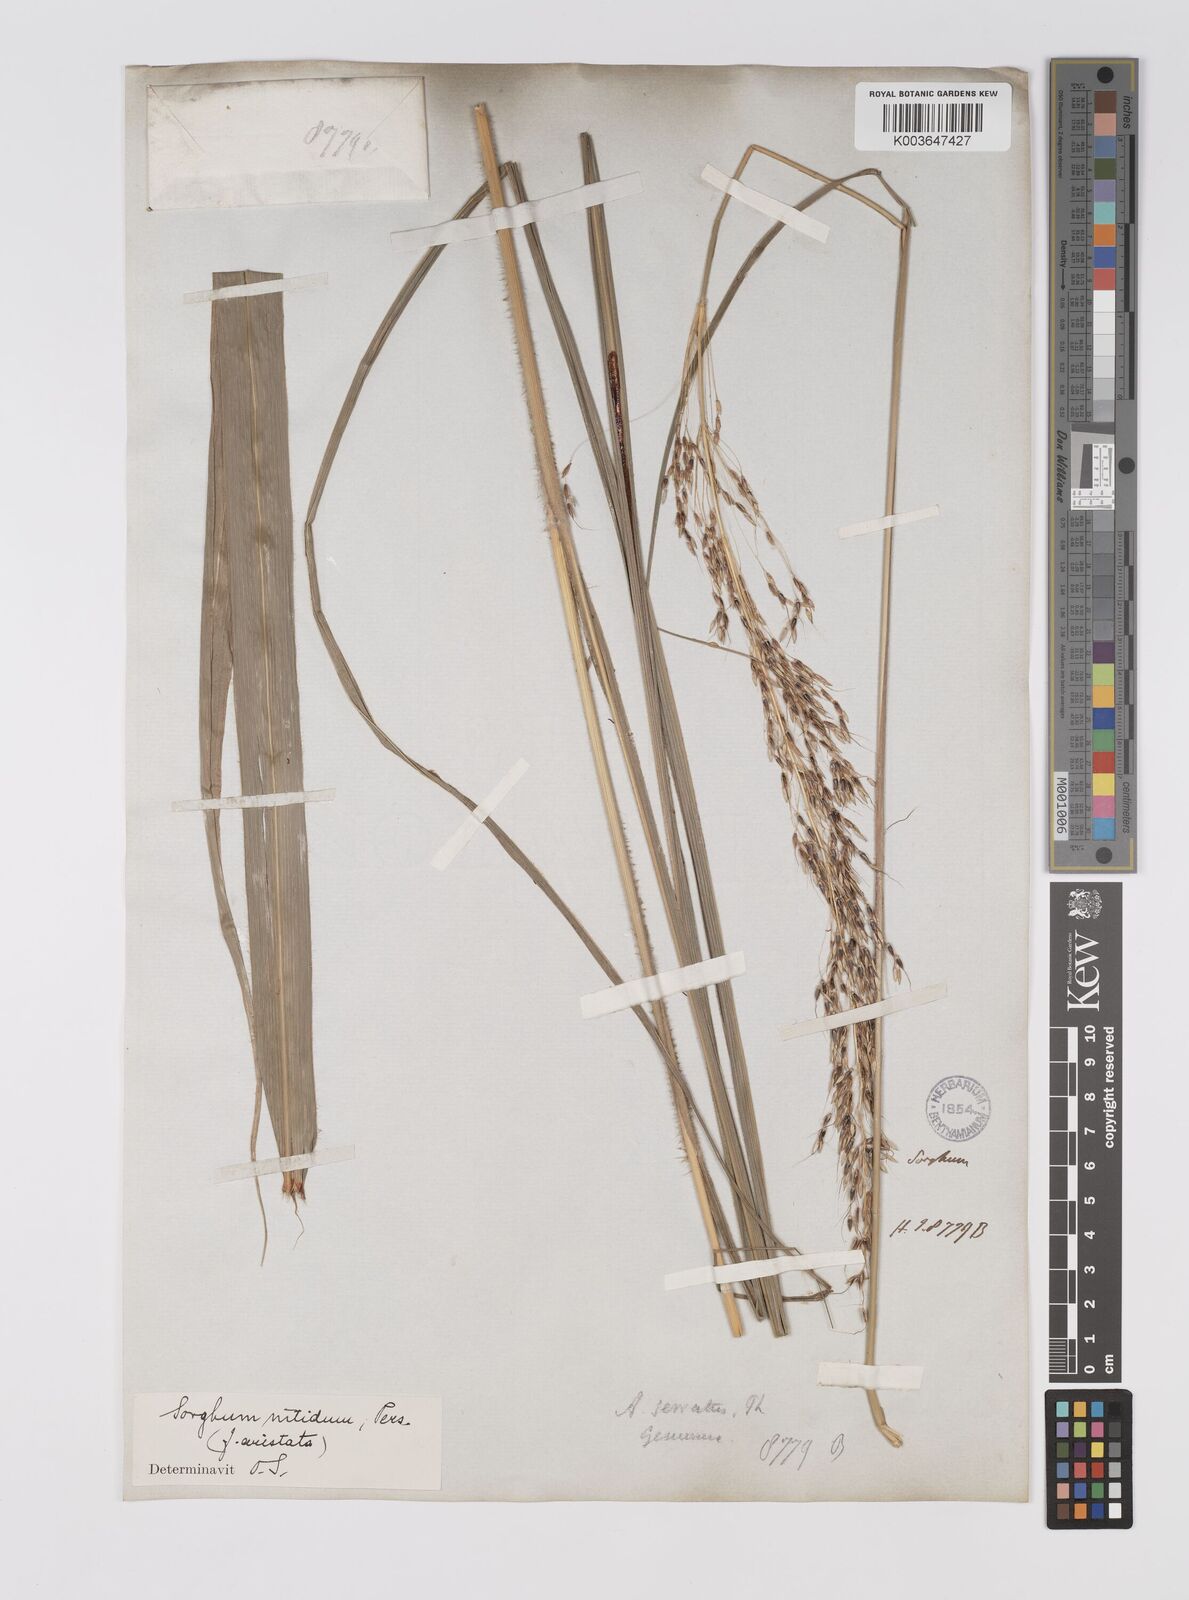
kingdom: Plantae
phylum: Tracheophyta
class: Liliopsida
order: Poales
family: Poaceae
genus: Sorghum
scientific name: Sorghum nitidum
